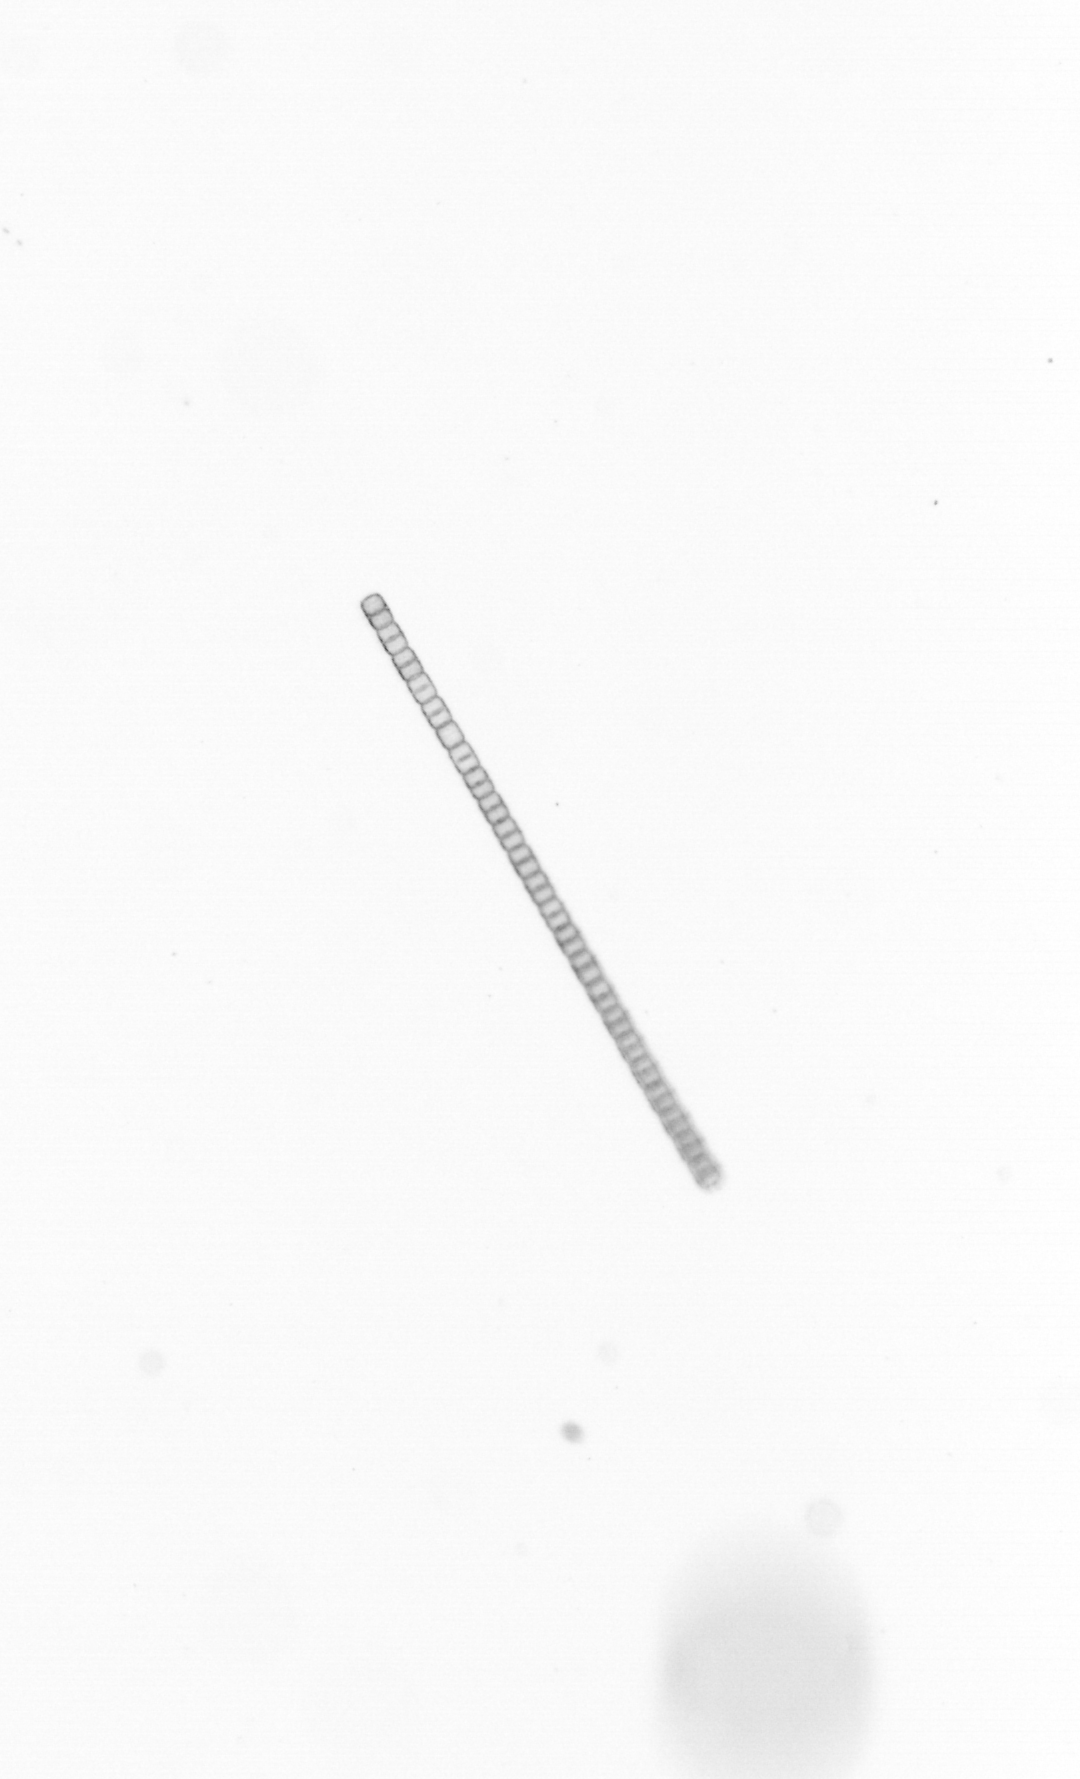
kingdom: Chromista
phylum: Ochrophyta
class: Bacillariophyceae
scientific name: Bacillariophyceae
